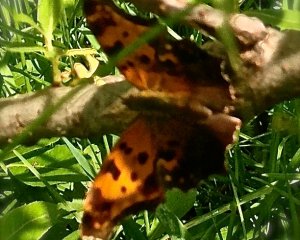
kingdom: Animalia
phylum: Arthropoda
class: Insecta
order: Lepidoptera
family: Nymphalidae
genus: Polygonia
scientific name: Polygonia comma
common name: Eastern Comma
